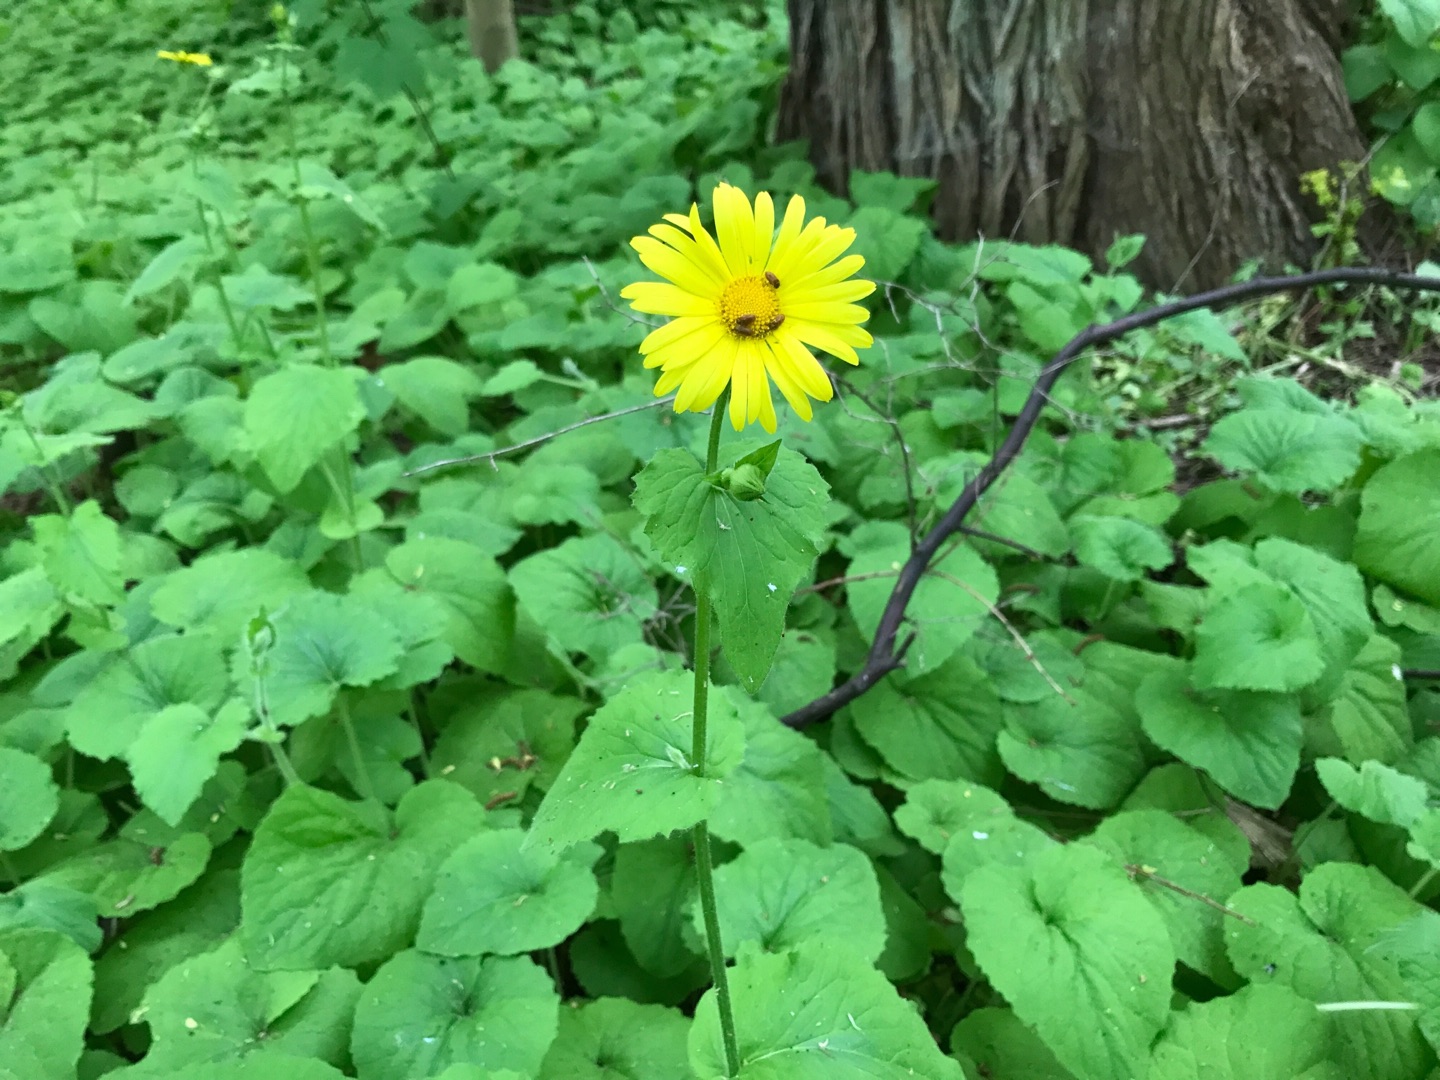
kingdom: Plantae
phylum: Tracheophyta
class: Magnoliopsida
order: Asterales
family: Asteraceae
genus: Doronicum
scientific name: Doronicum pardalianches
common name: Hjertebladet gemserod
